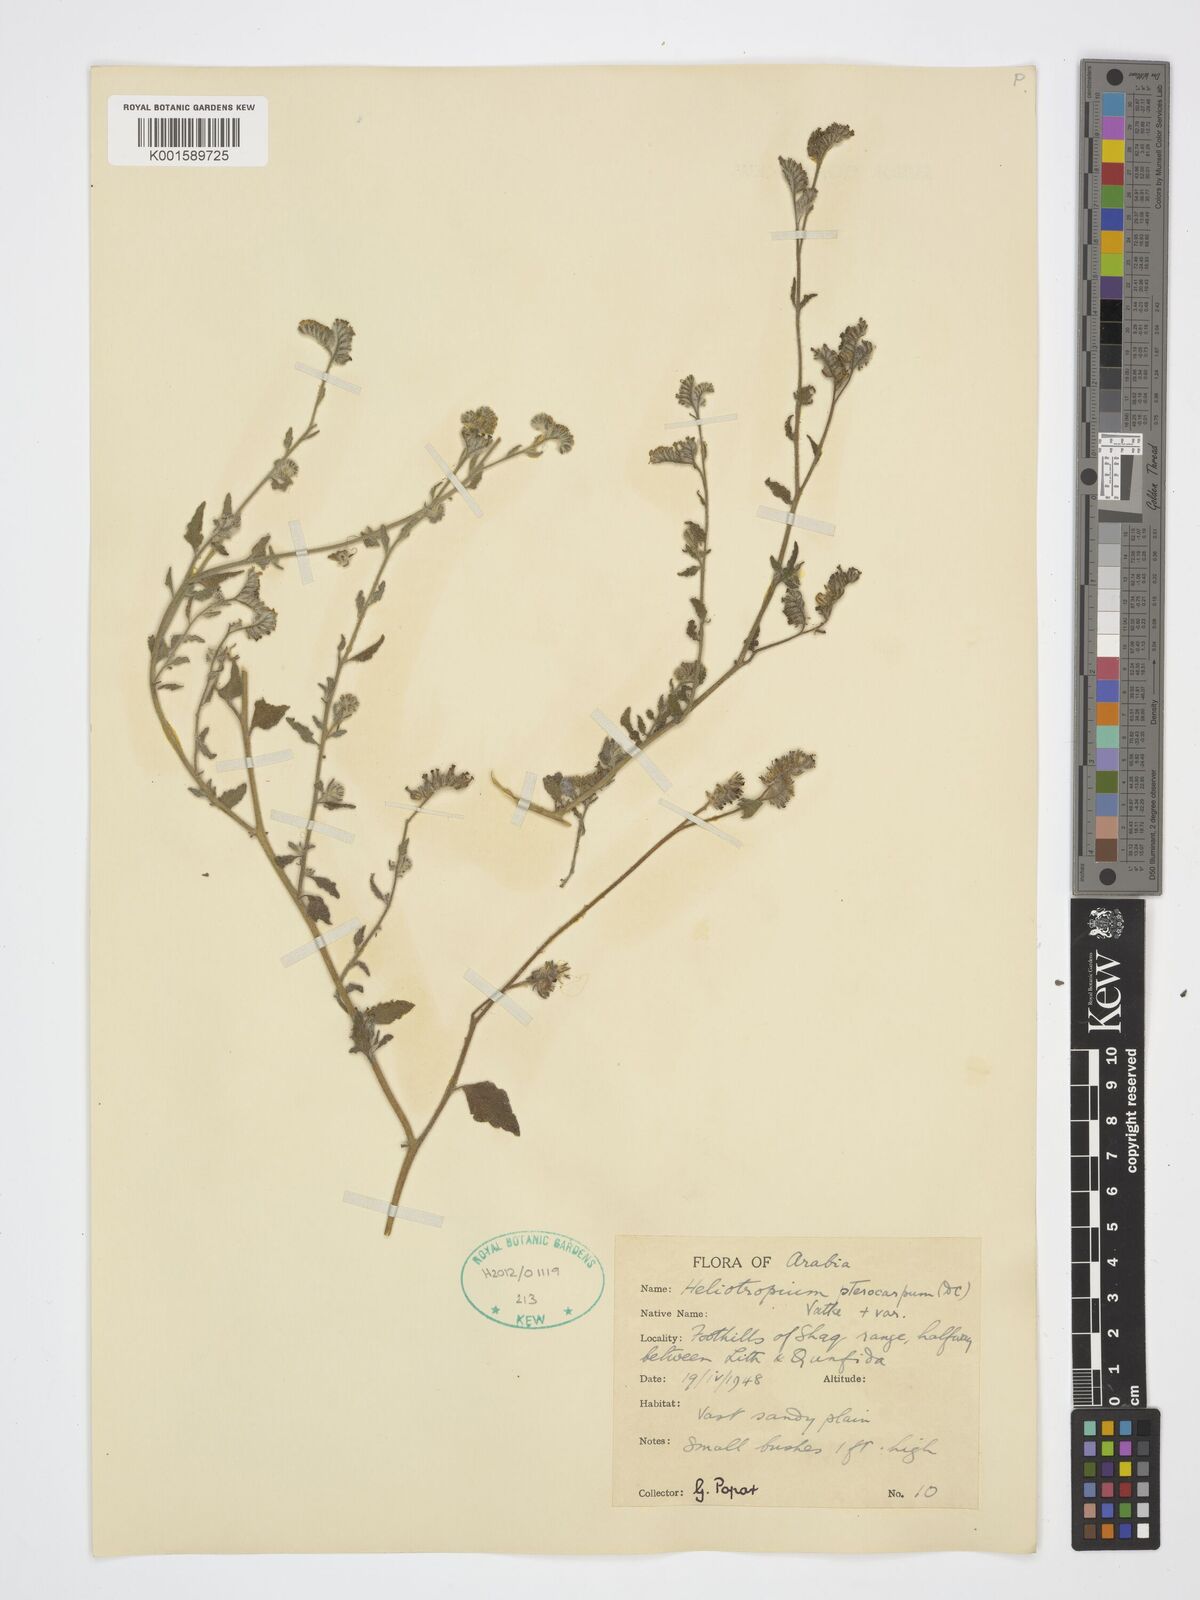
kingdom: Plantae
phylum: Tracheophyta
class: Magnoliopsida
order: Boraginales
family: Heliotropiaceae
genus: Heliotropium
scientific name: Heliotropium pterocarpum
